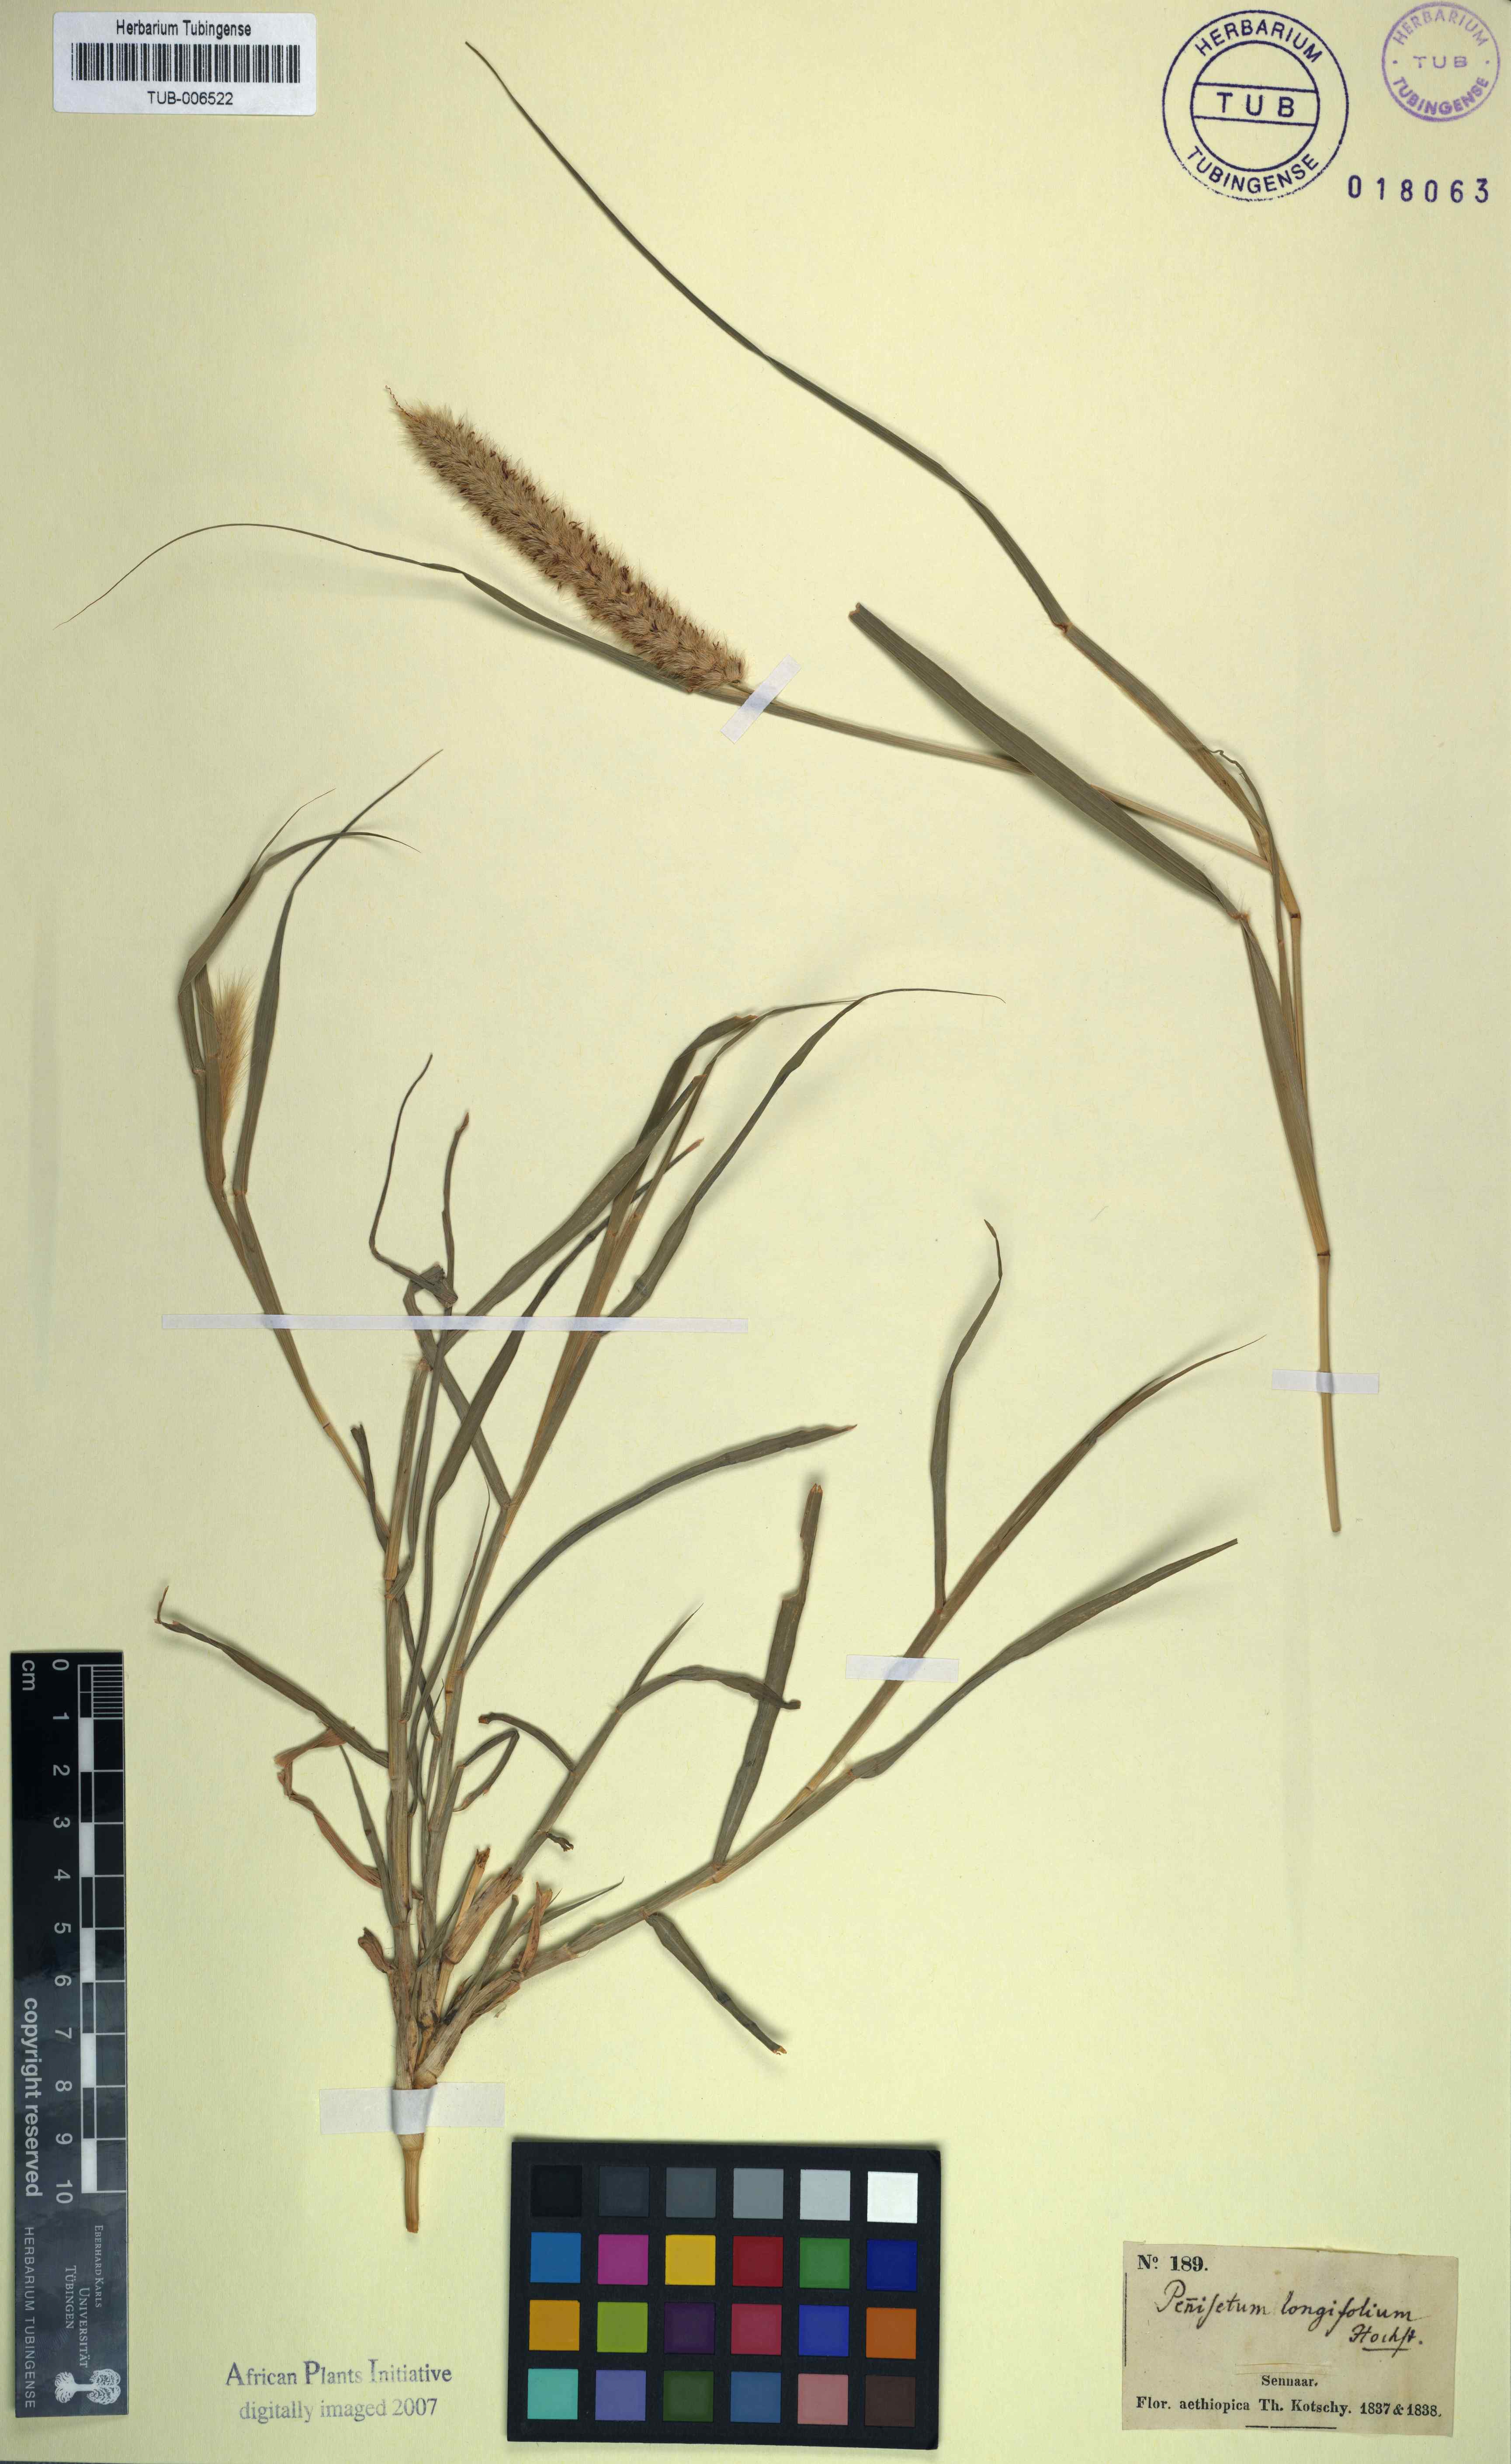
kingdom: Plantae
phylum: Tracheophyta
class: Liliopsida
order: Poales
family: Poaceae
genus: Cenchrus
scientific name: Cenchrus ciliaris
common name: Buffelgrass
